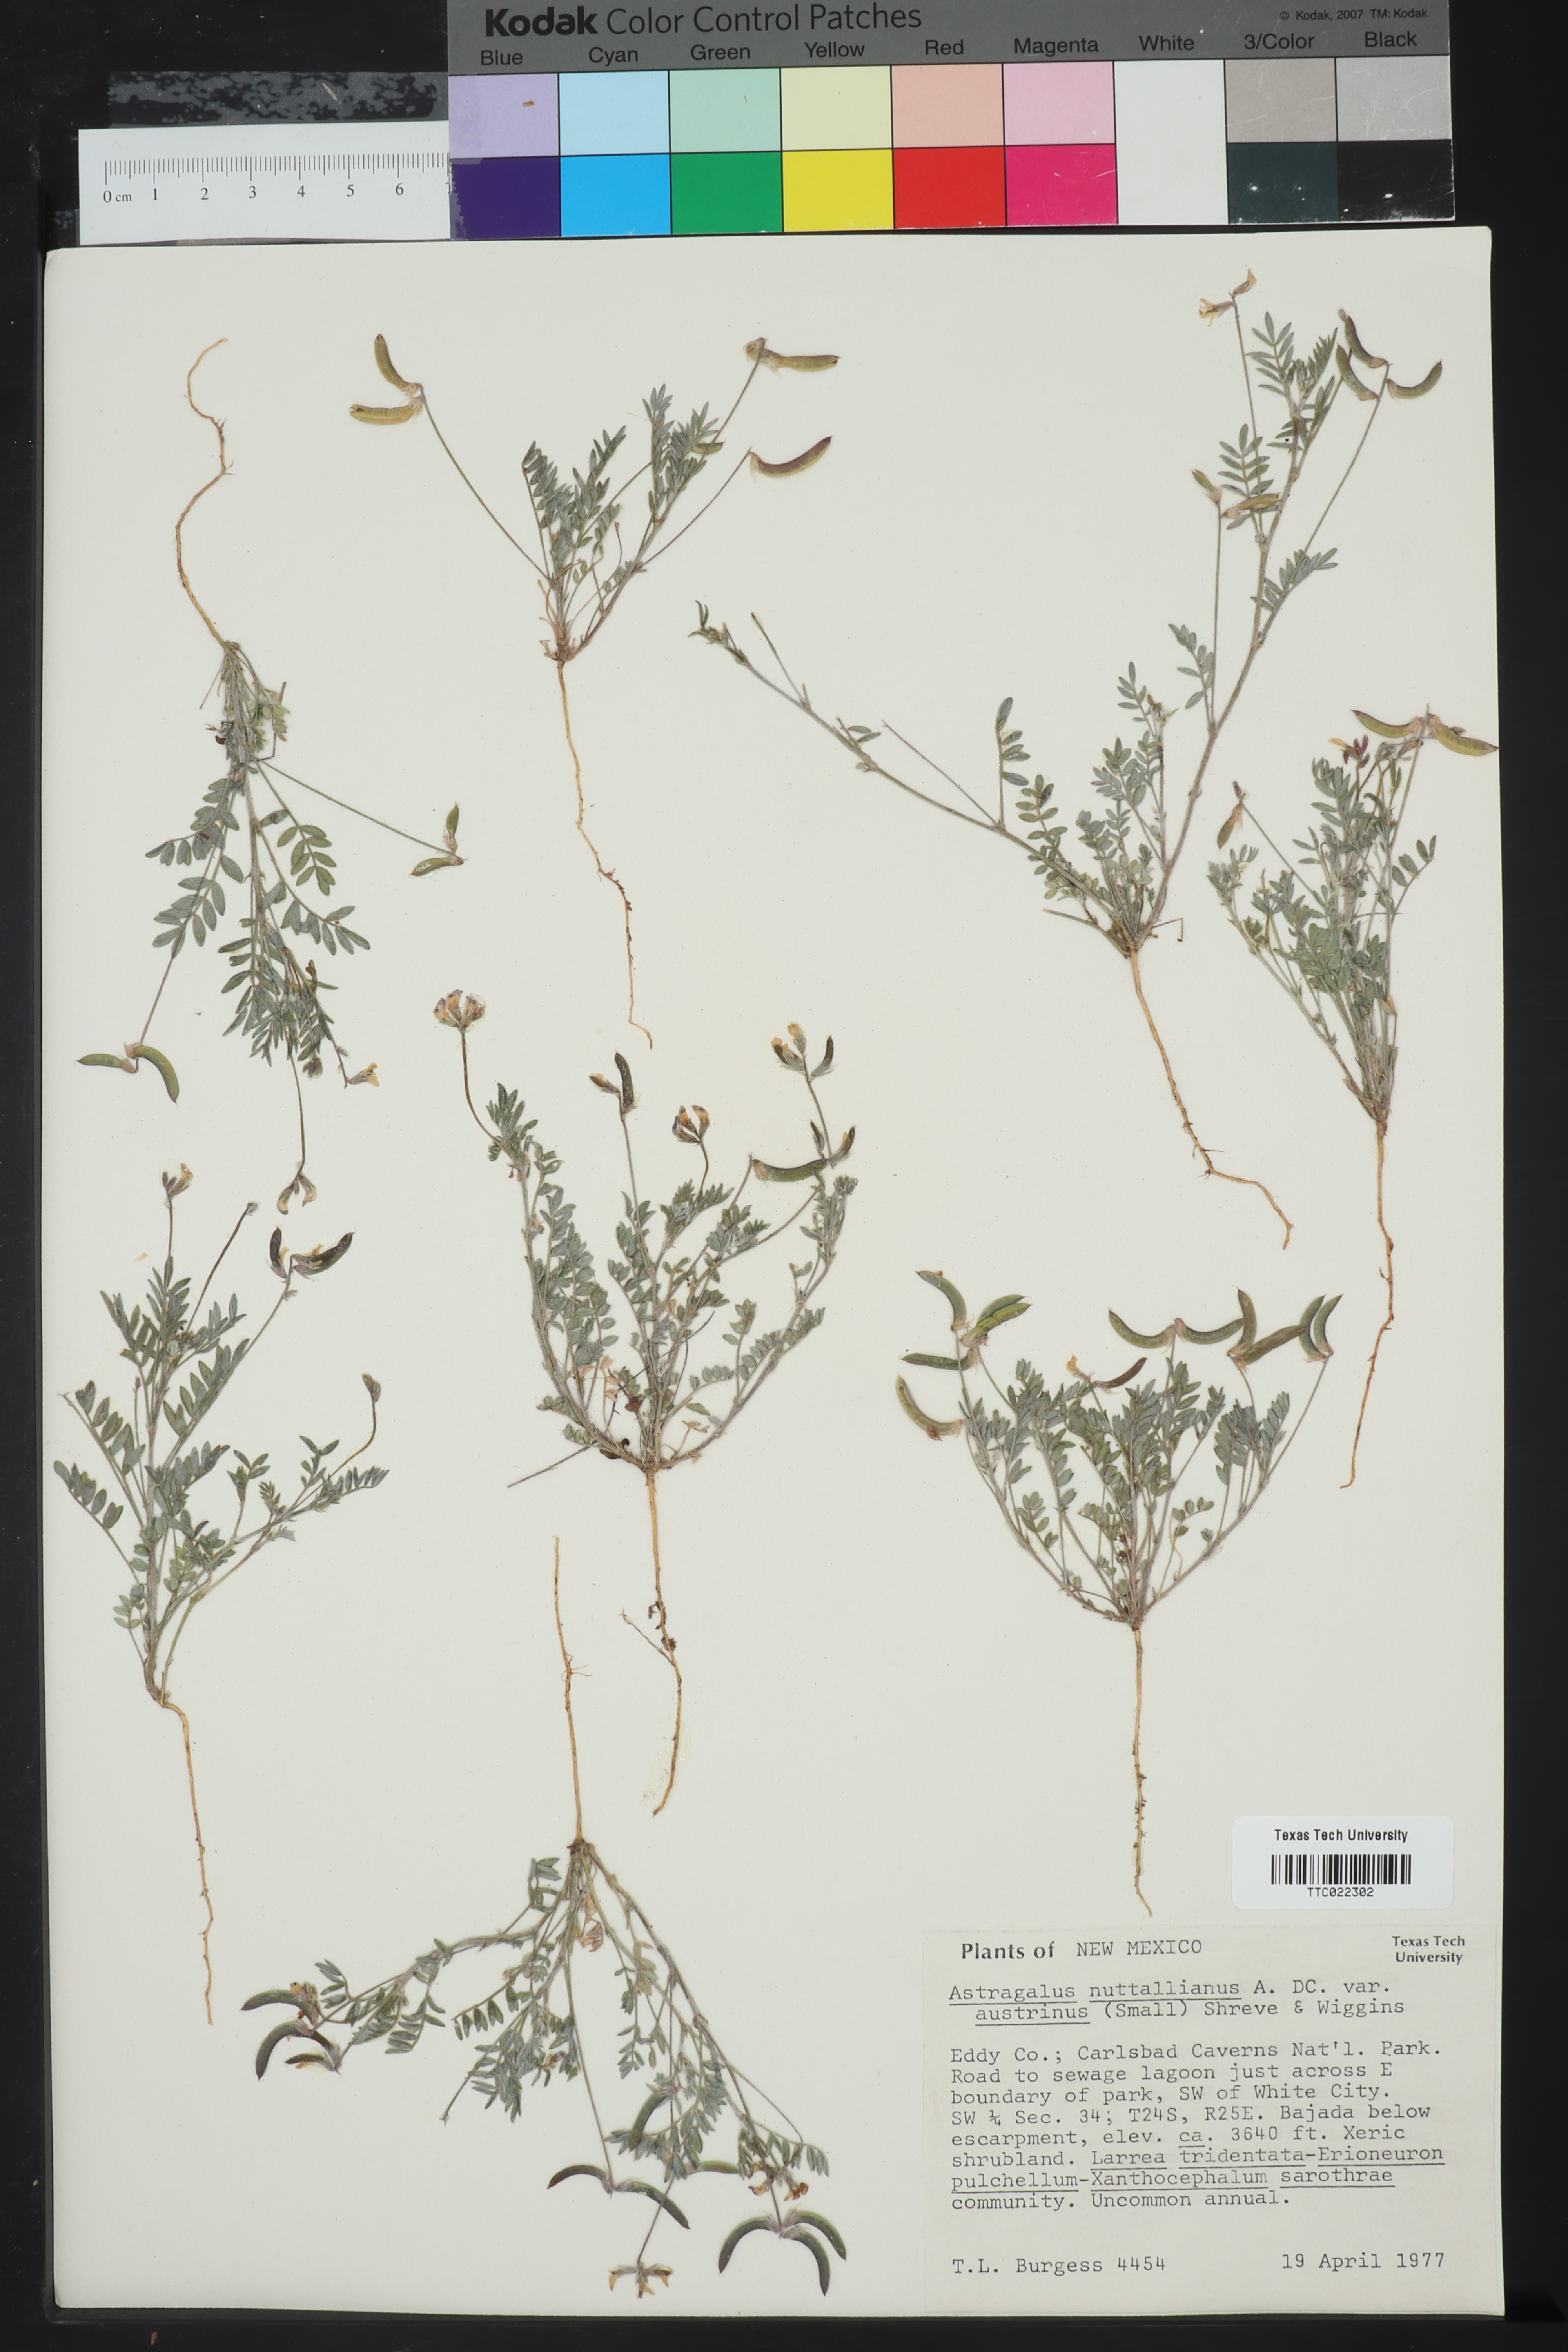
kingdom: Plantae
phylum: Tracheophyta
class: Magnoliopsida
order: Fabales
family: Fabaceae
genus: Astragalus
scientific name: Astragalus nuttallianus
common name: Smallflowered milkvetch
